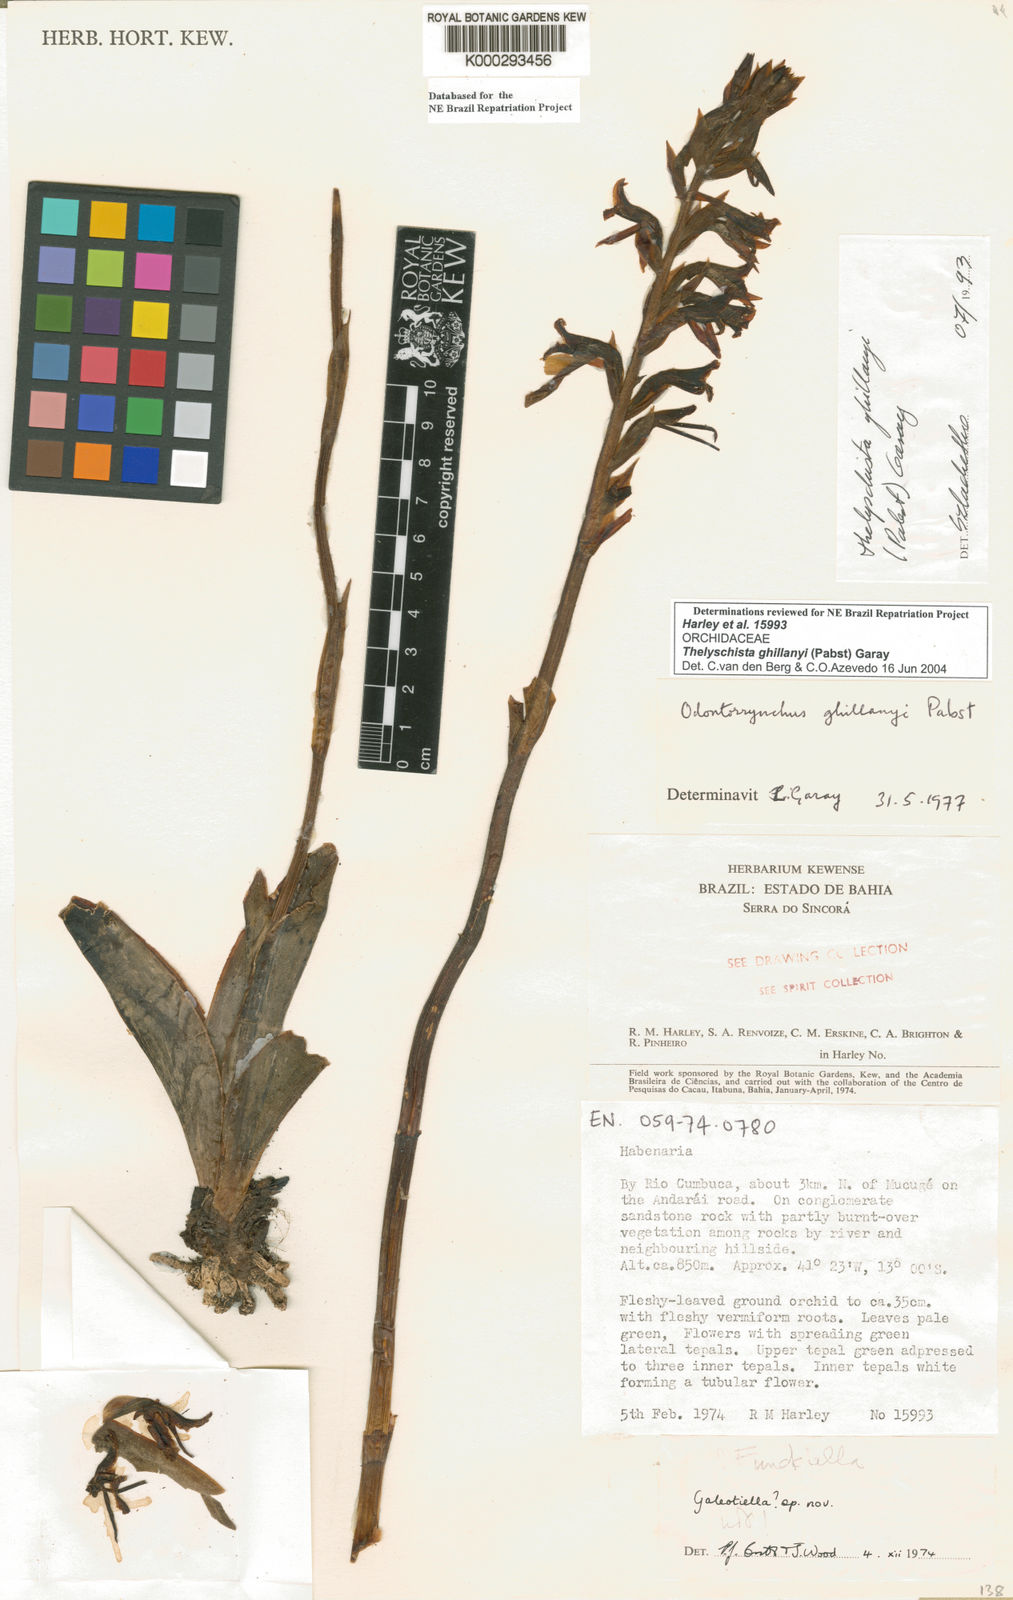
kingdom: Plantae
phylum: Tracheophyta
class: Liliopsida
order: Asparagales
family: Orchidaceae
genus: Thelyschista
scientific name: Thelyschista ghillanyi
